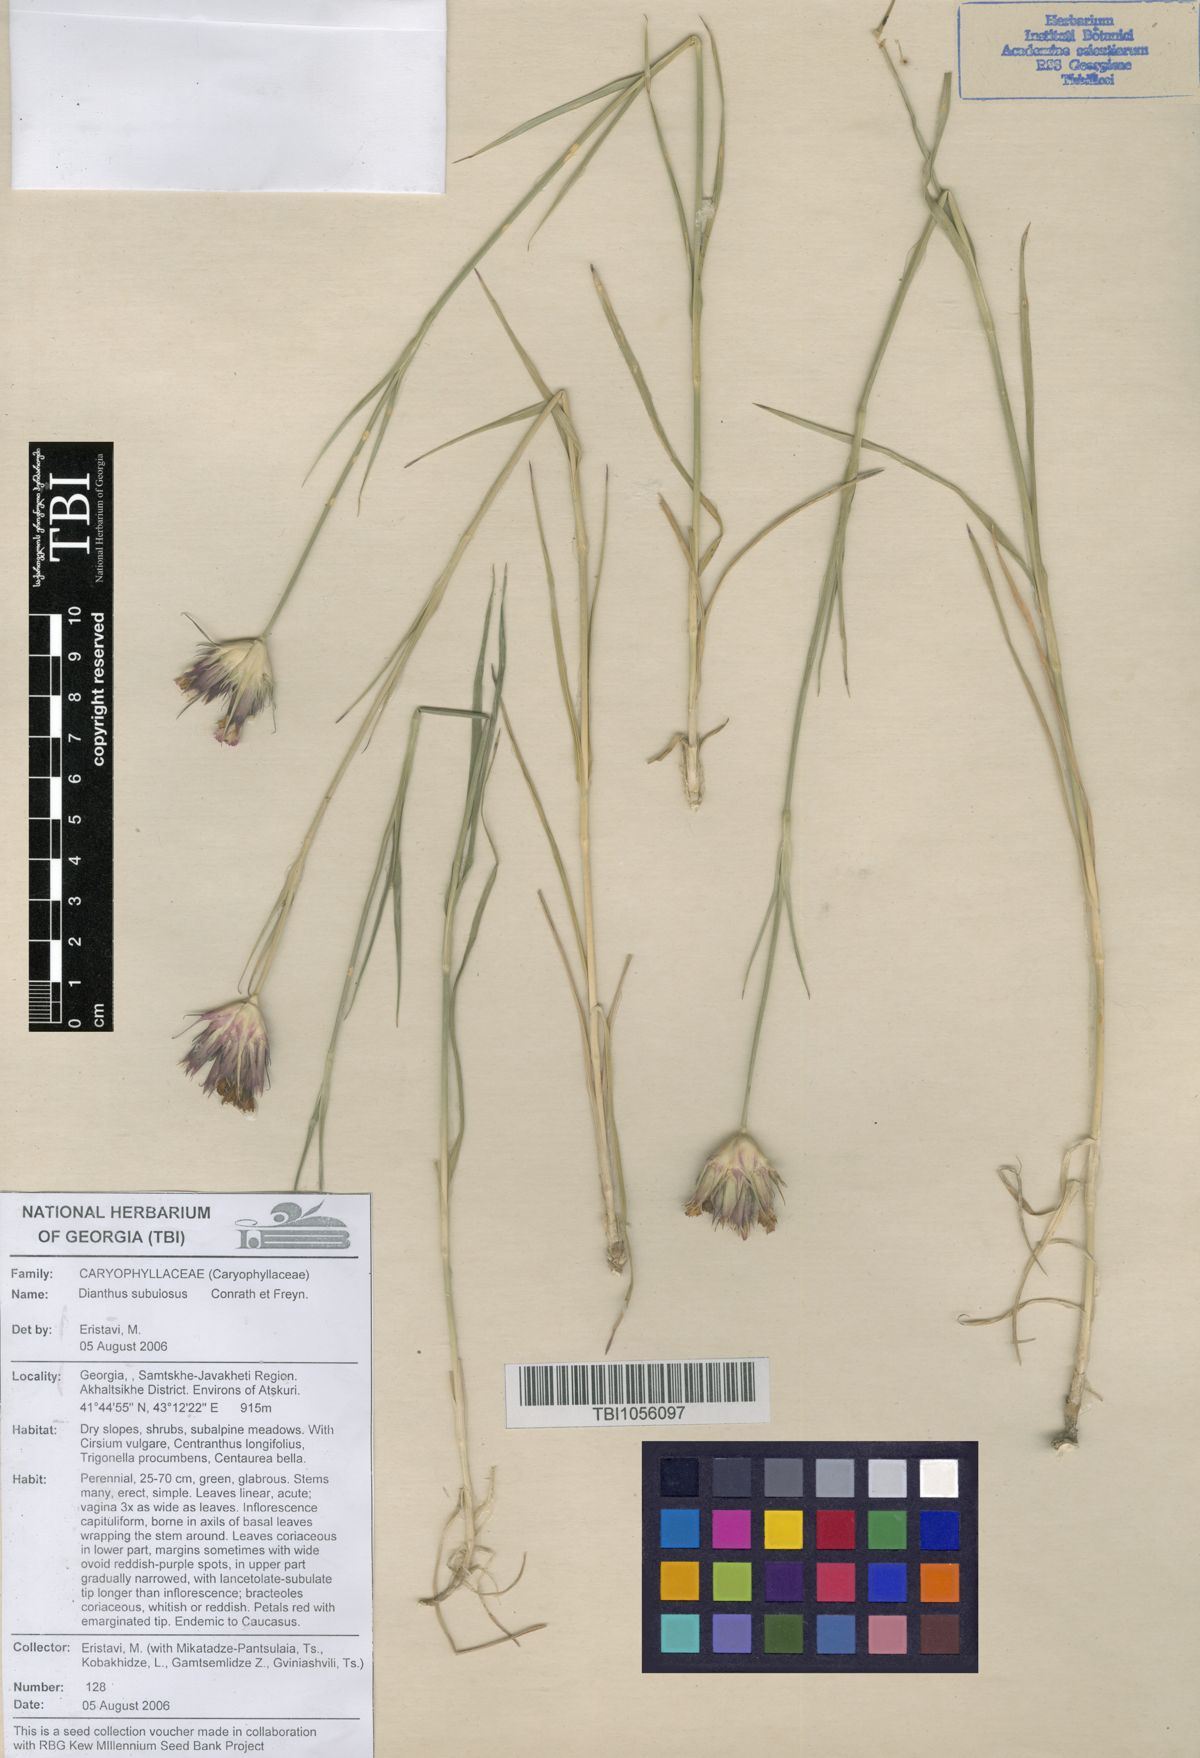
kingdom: Plantae
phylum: Tracheophyta
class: Magnoliopsida
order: Caryophyllales
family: Caryophyllaceae
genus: Dianthus
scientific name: Dianthus subulosus
